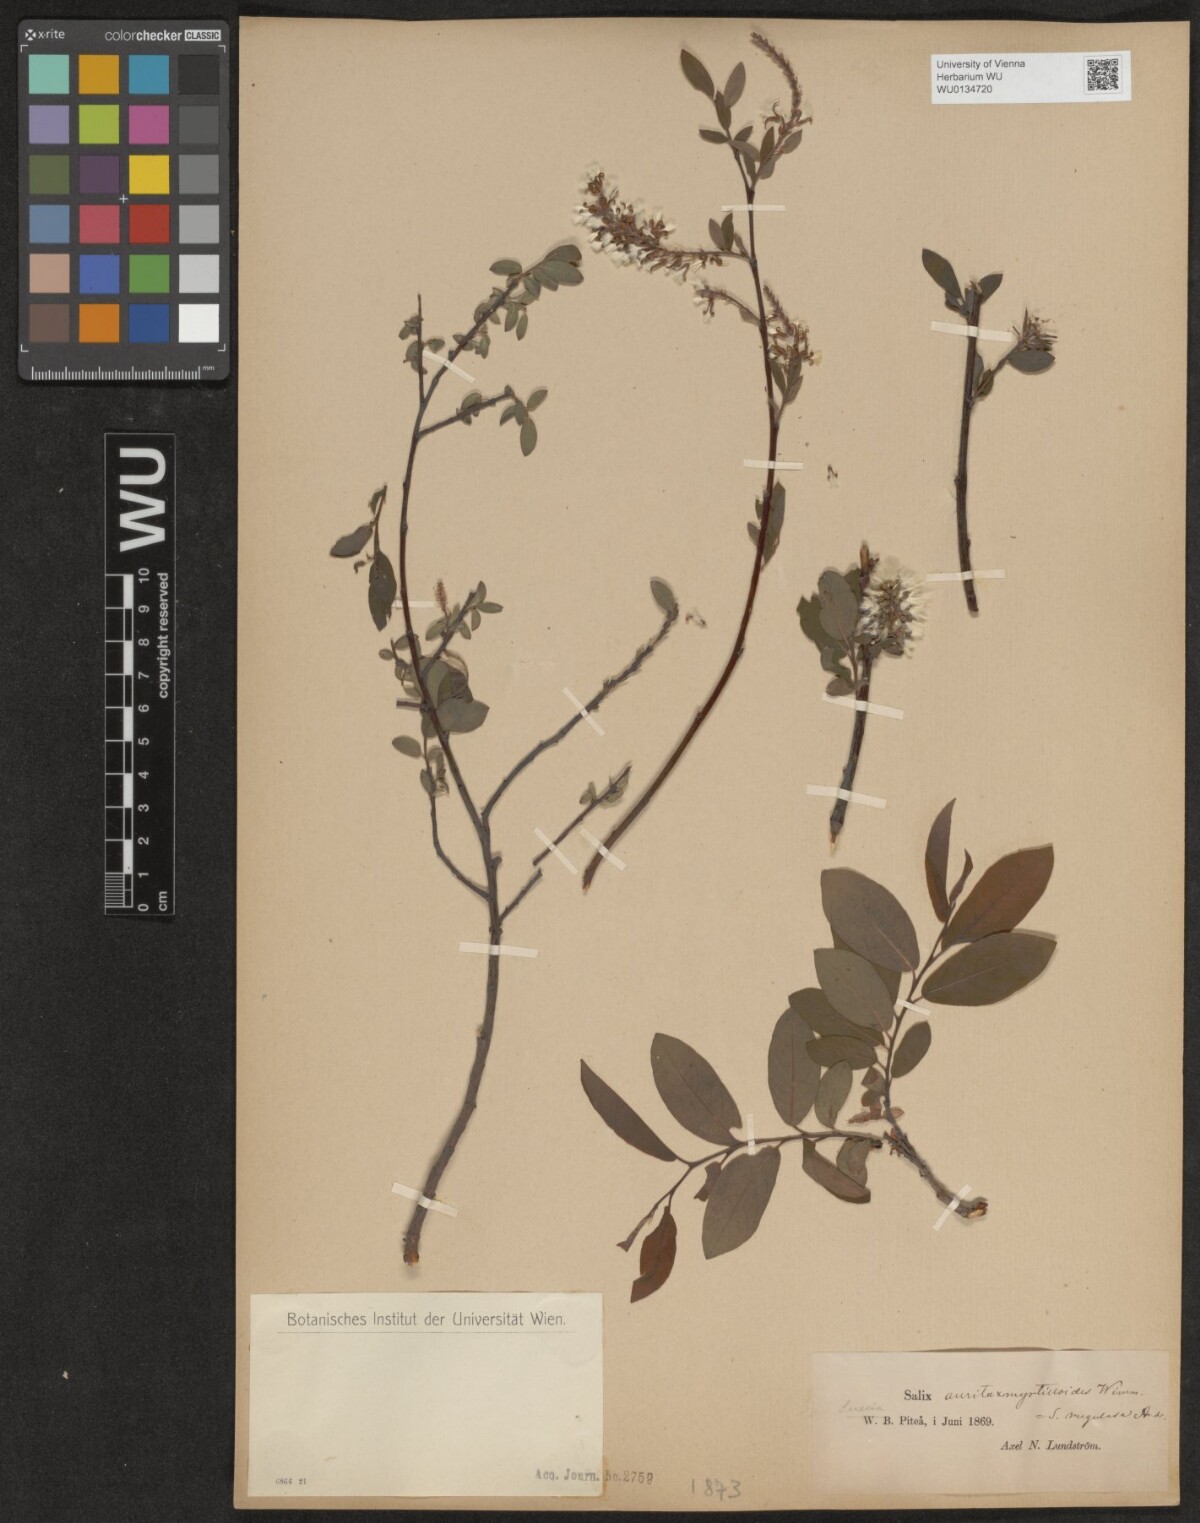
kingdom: Plantae
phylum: Tracheophyta
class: Magnoliopsida
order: Malpighiales
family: Salicaceae
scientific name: Salicaceae
